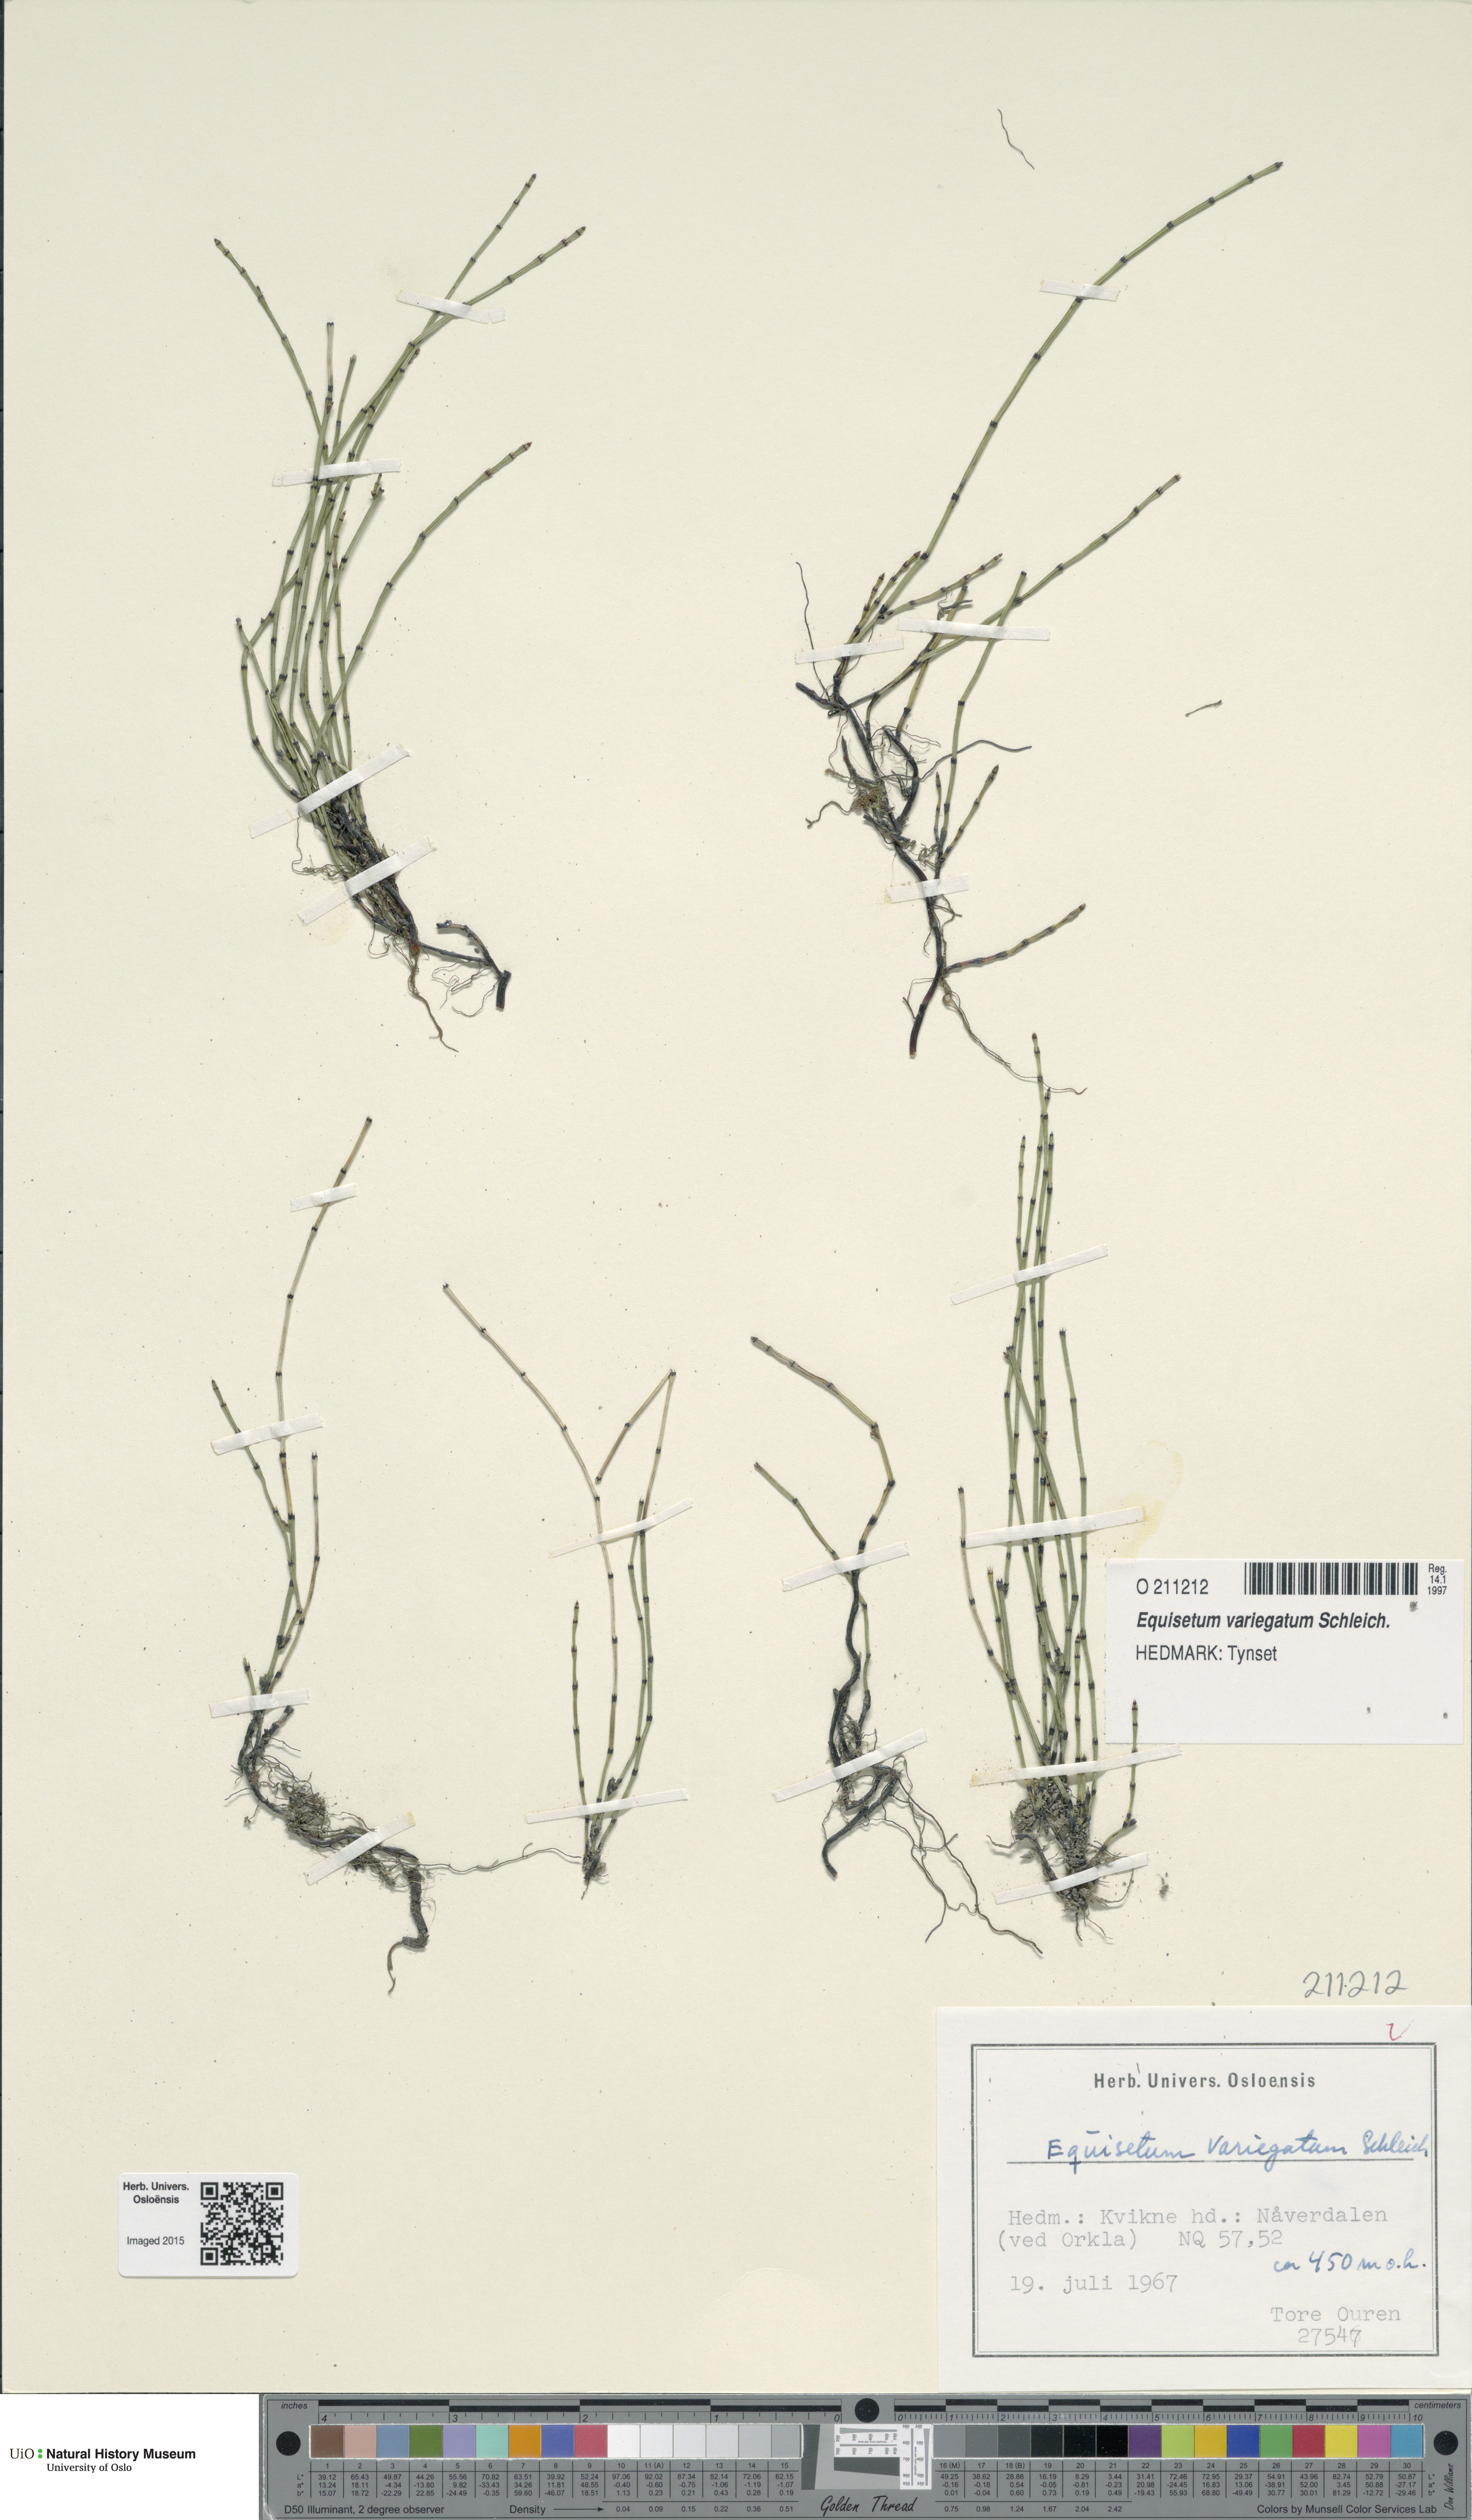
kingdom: Plantae
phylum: Tracheophyta
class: Polypodiopsida
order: Equisetales
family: Equisetaceae
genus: Equisetum
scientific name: Equisetum variegatum
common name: Variegated horsetail
